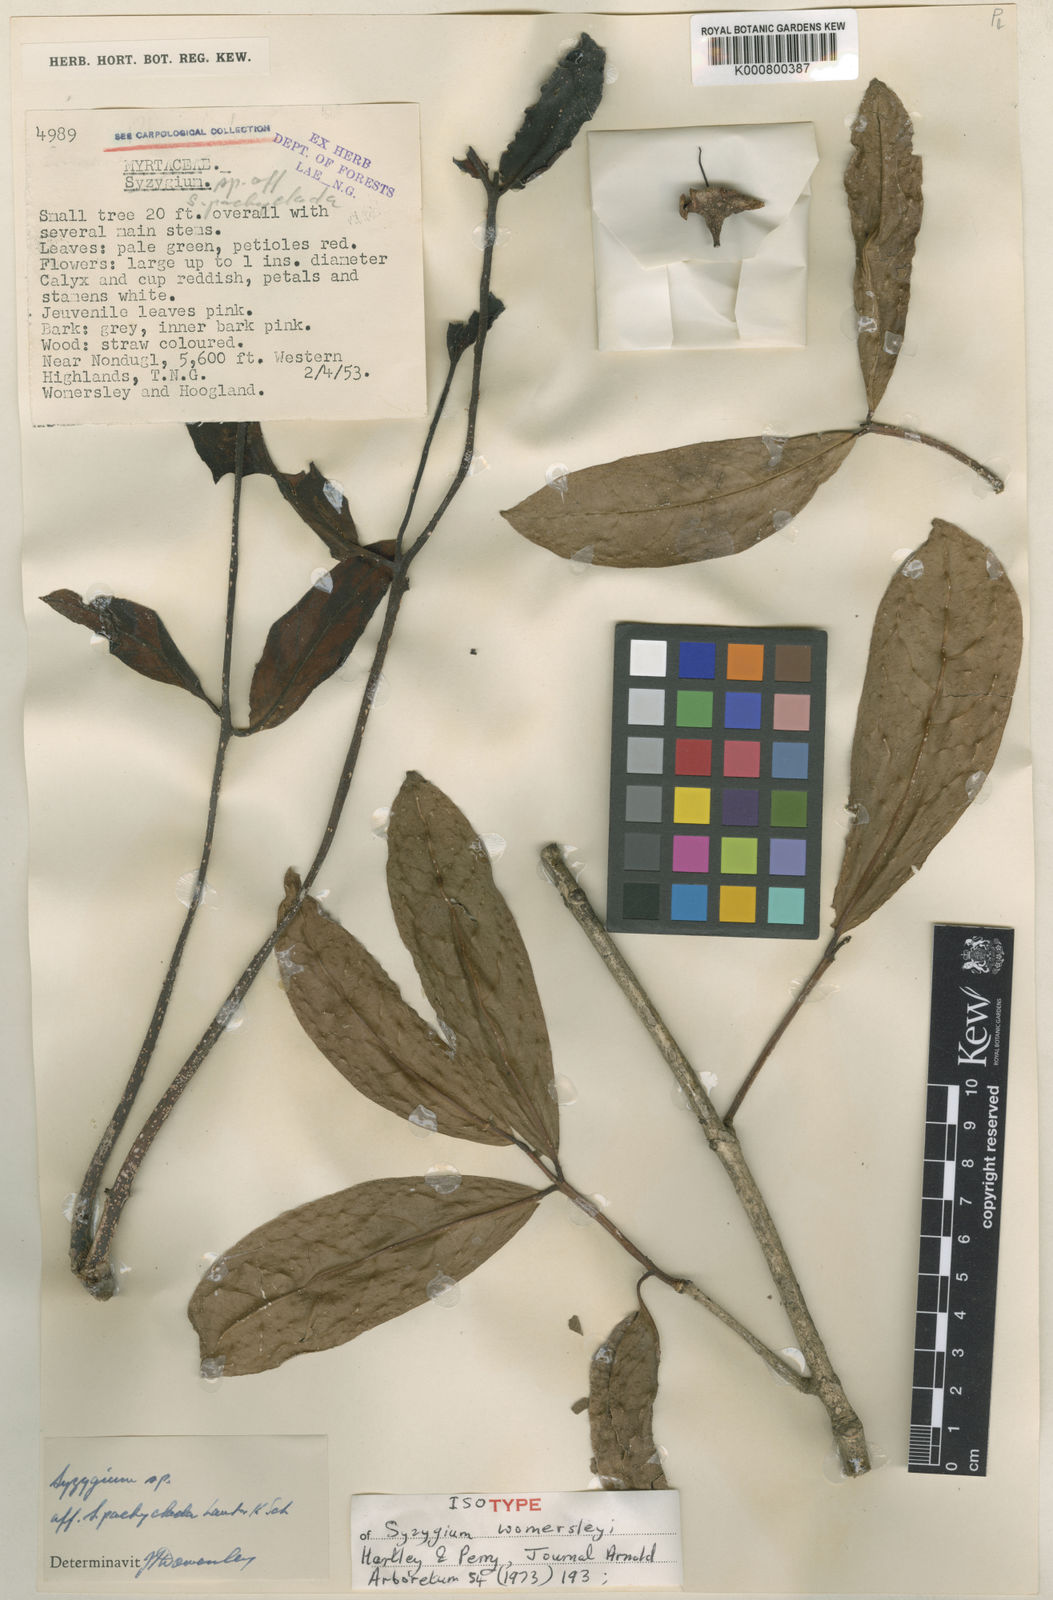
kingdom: Plantae
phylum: Tracheophyta
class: Magnoliopsida
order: Myrtales
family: Myrtaceae
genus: Syzygium
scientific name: Syzygium womersleyi
